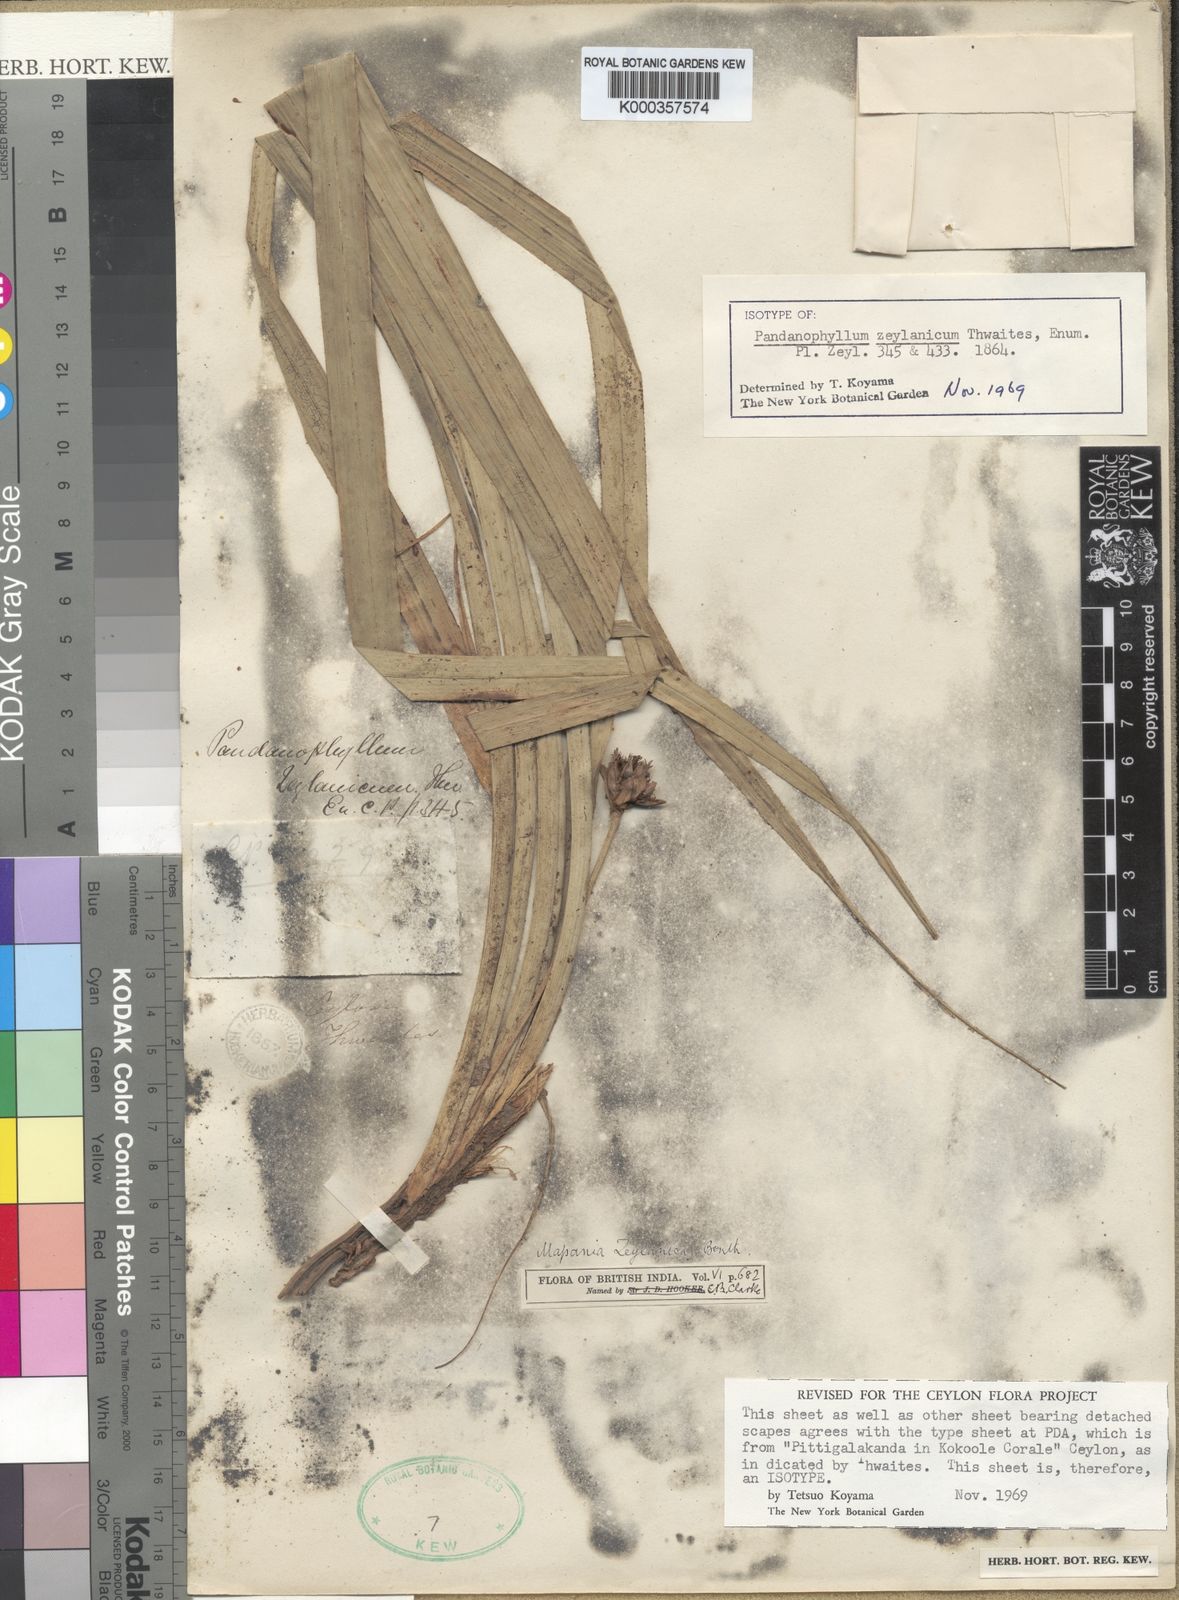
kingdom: Plantae
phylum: Tracheophyta
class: Liliopsida
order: Poales
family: Cyperaceae
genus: Mapania
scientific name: Mapania
